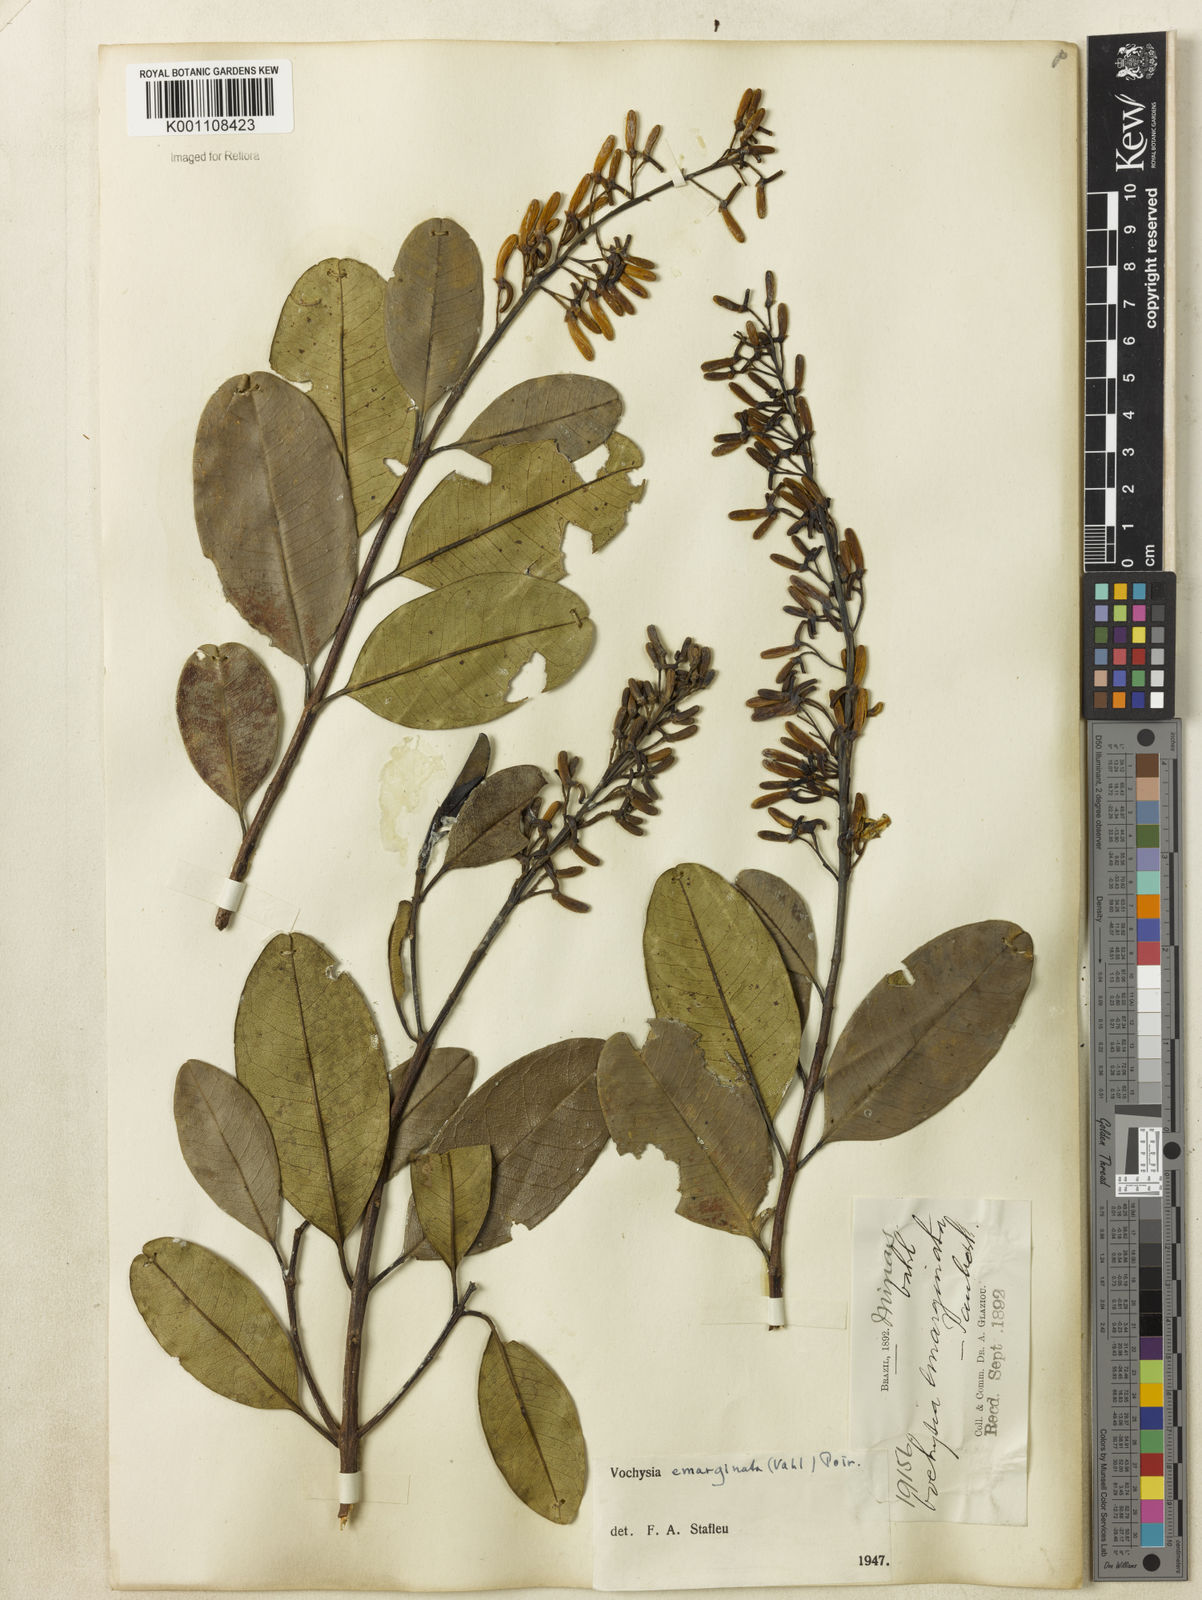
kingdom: Plantae
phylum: Tracheophyta
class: Magnoliopsida
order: Myrtales
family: Vochysiaceae
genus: Vochysia
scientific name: Vochysia
